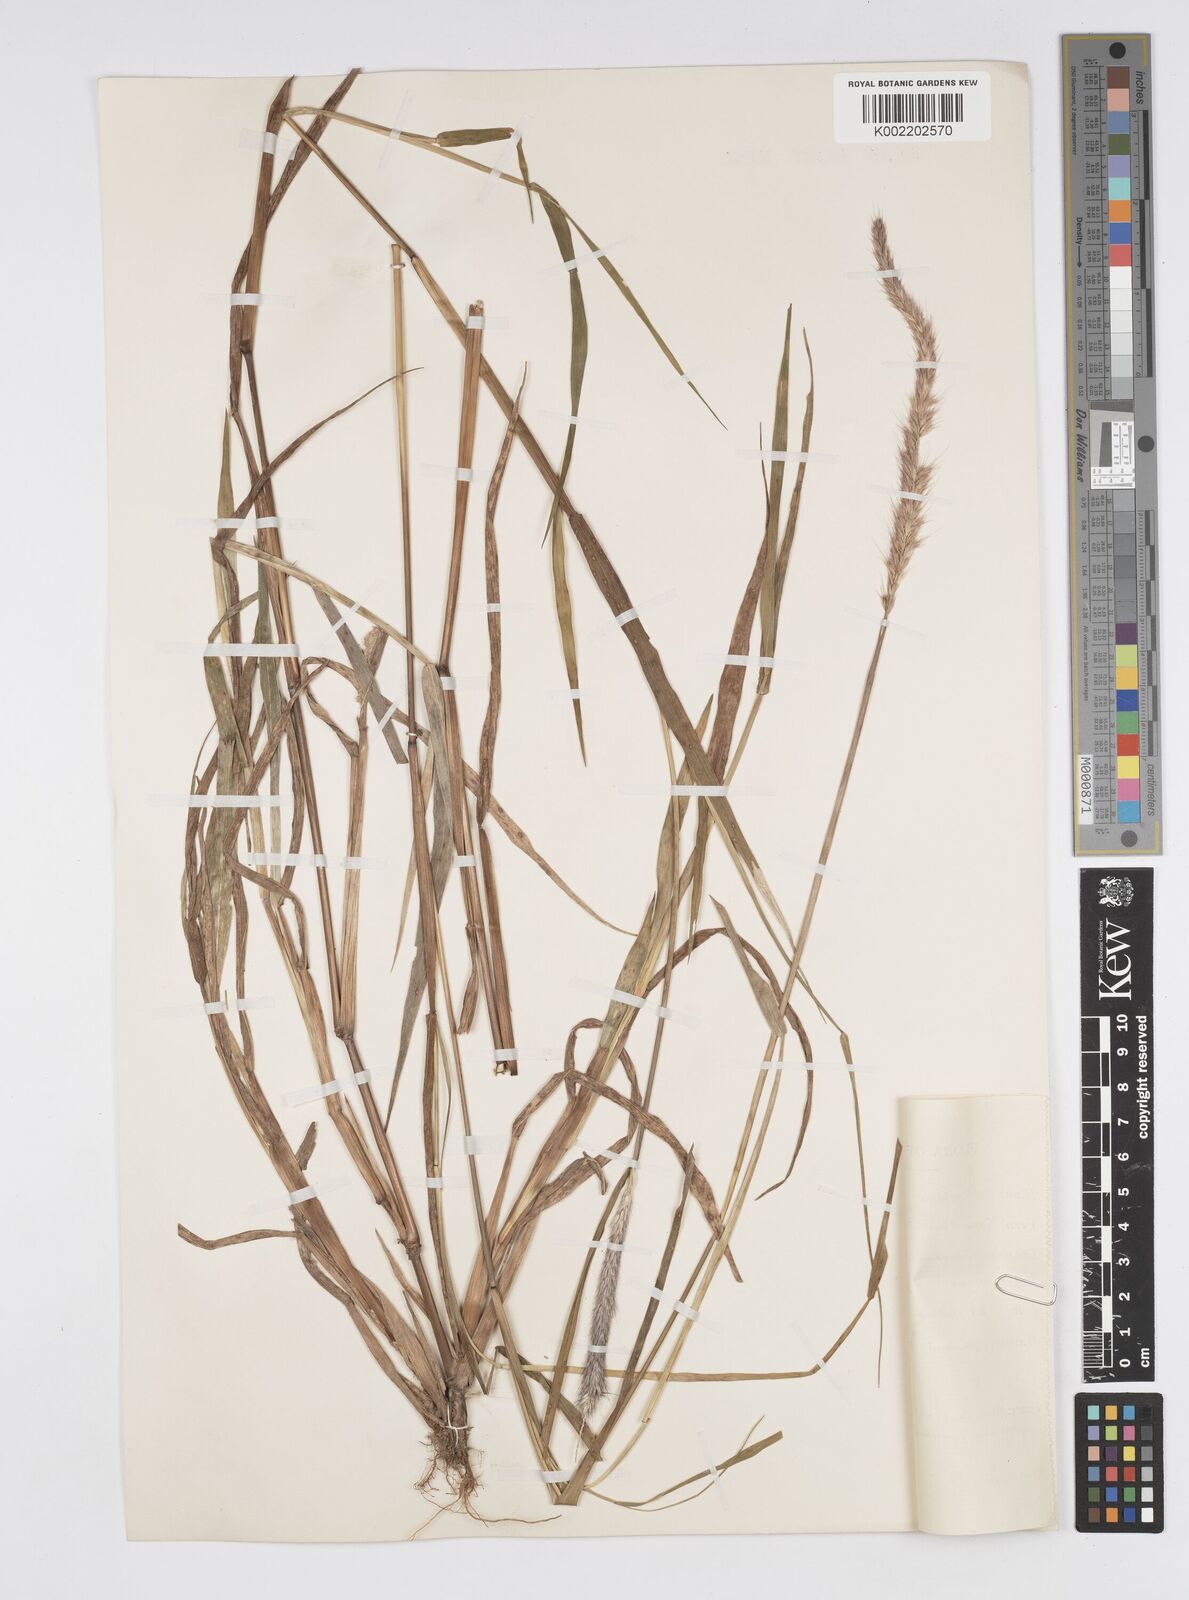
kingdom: Plantae
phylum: Tracheophyta
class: Liliopsida
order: Poales
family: Poaceae
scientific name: Poaceae
